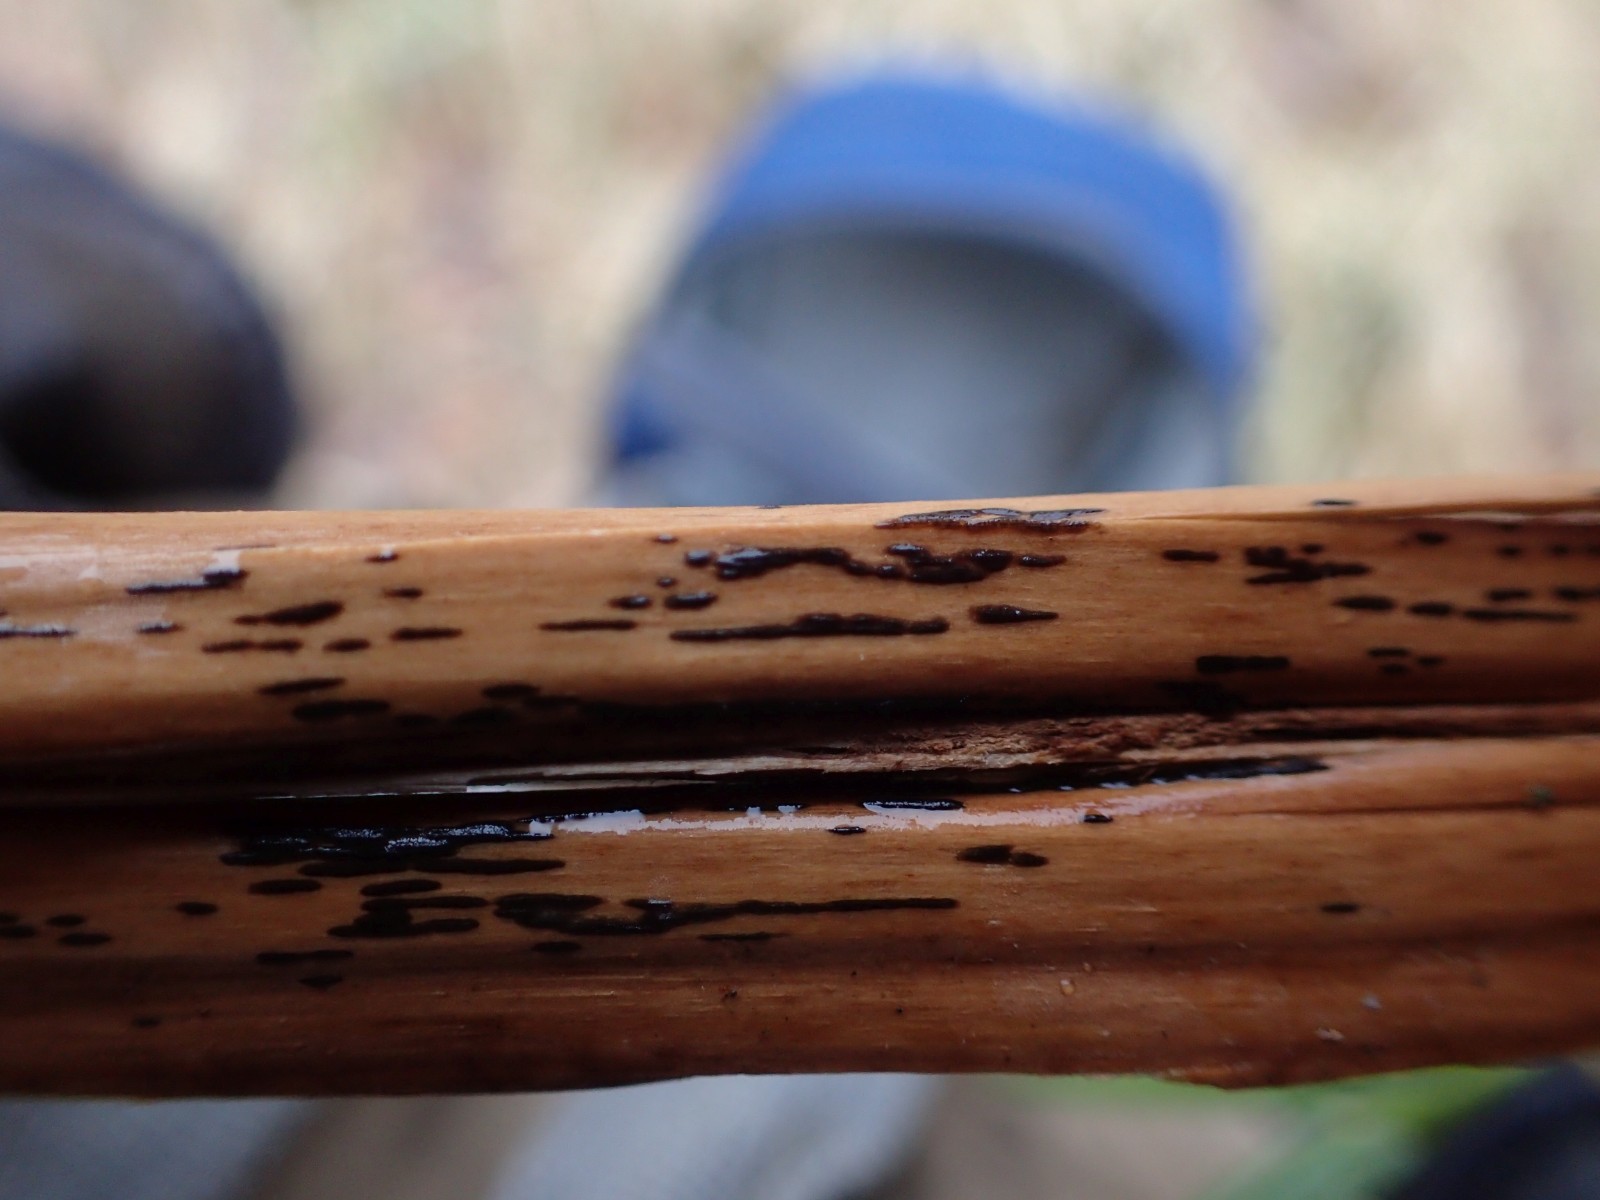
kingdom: Fungi
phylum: Ascomycota
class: Dothideomycetes
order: Pleosporales
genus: Rhopographus
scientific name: Rhopographus filicinus
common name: Bracken map
